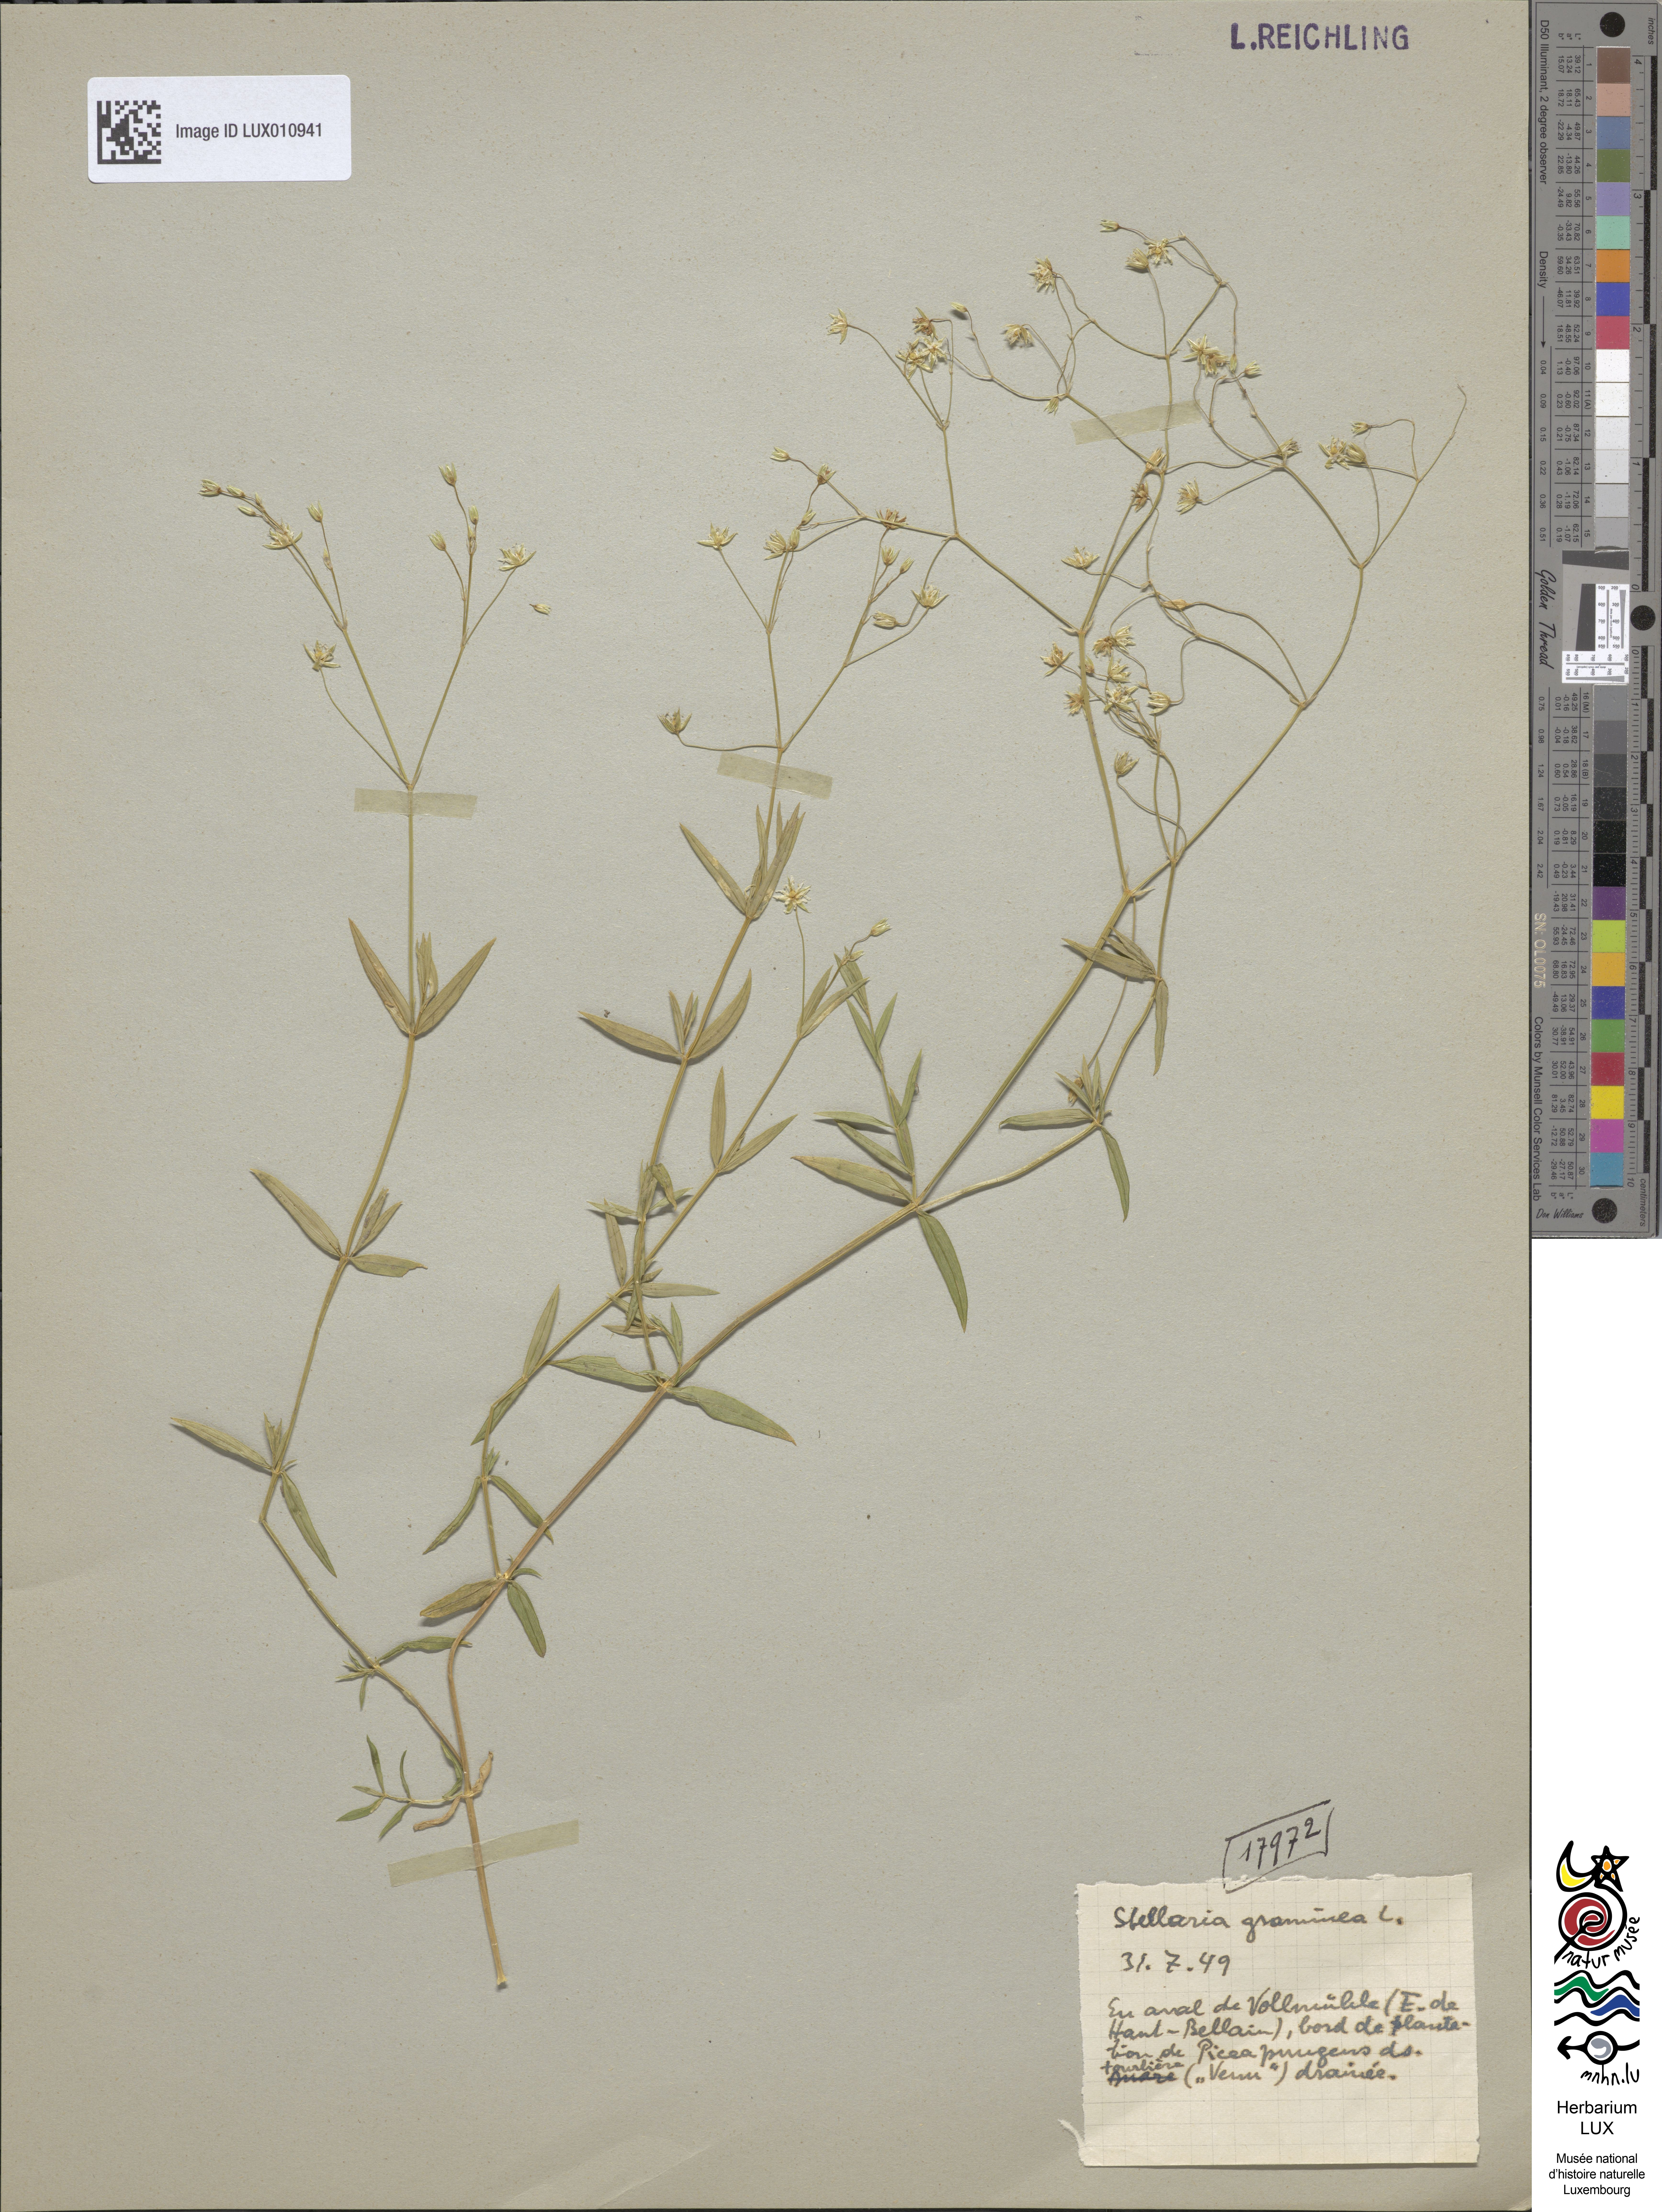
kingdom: Plantae
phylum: Tracheophyta
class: Magnoliopsida
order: Caryophyllales
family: Caryophyllaceae
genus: Stellaria
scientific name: Stellaria graminea
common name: Grass-like starwort
